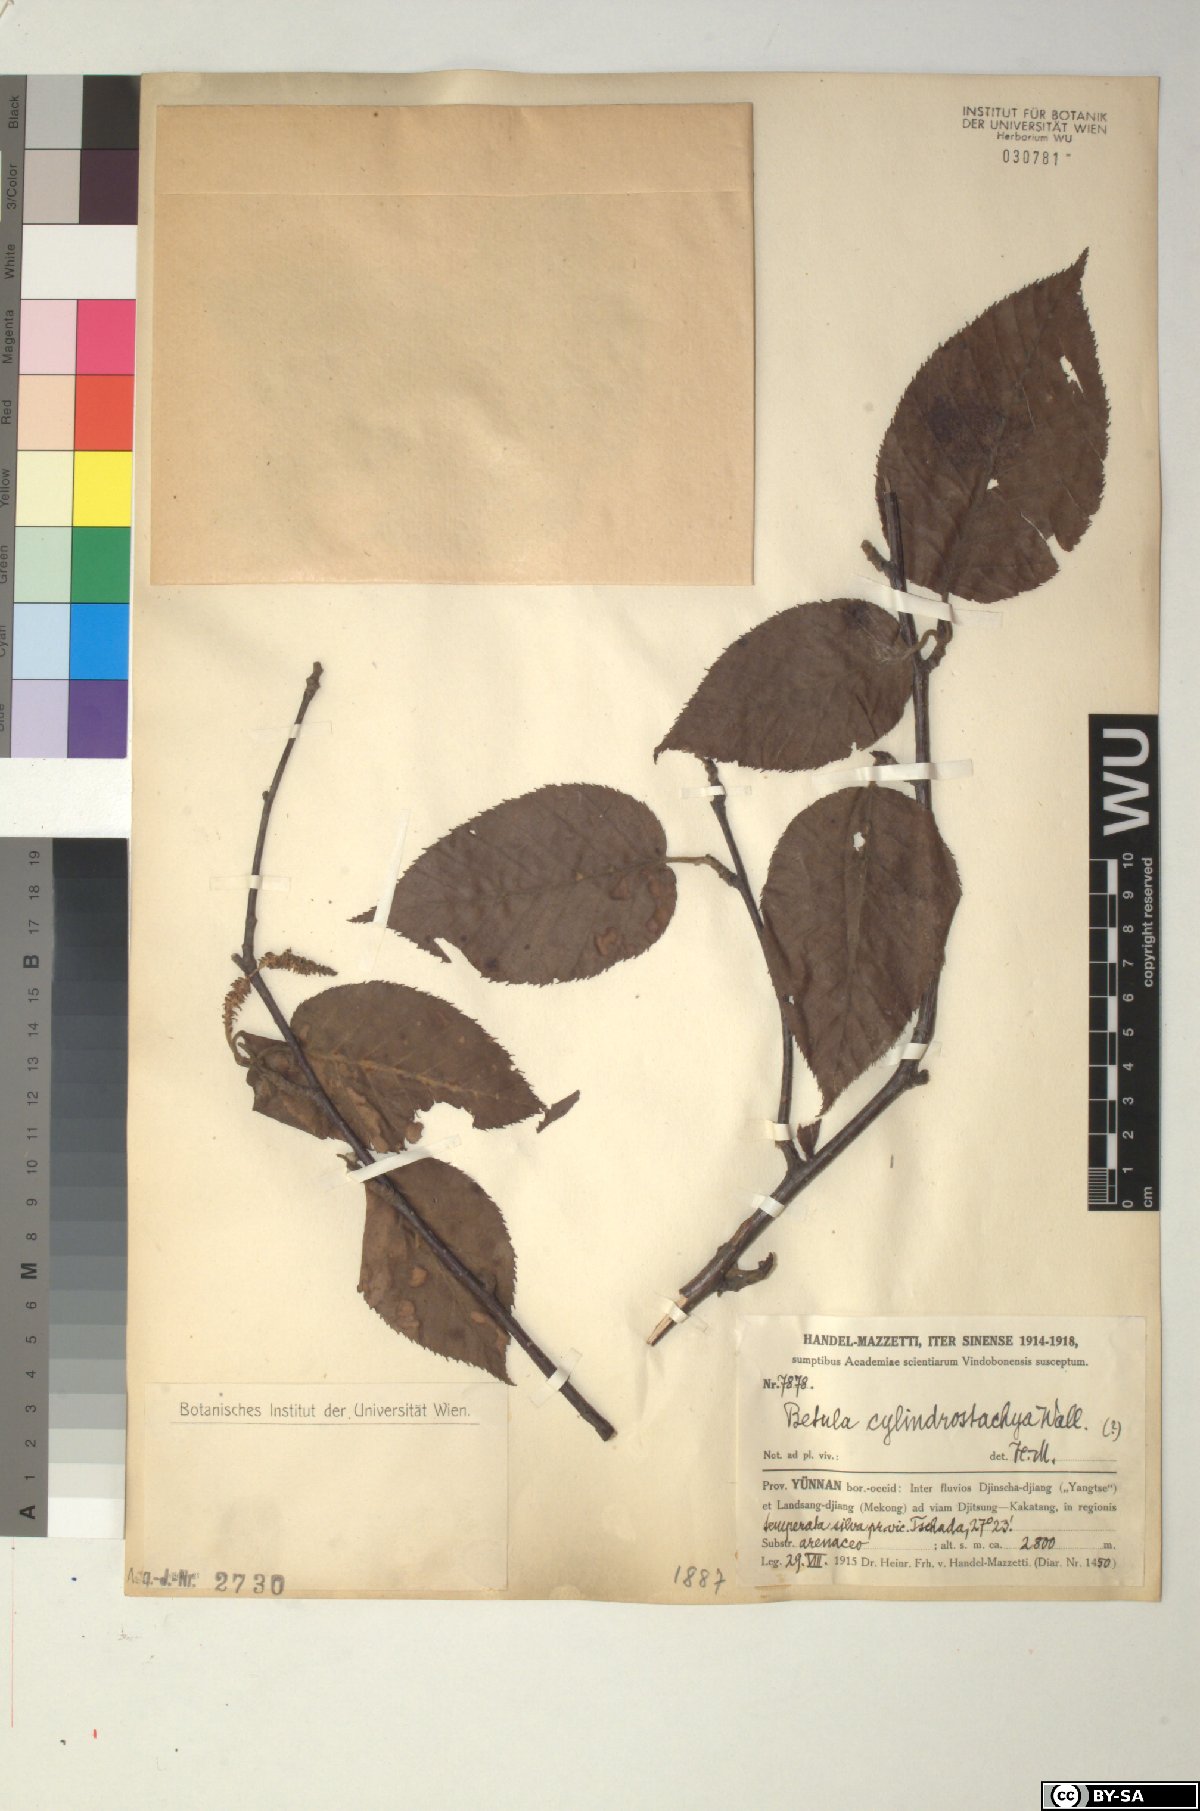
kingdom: Plantae
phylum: Tracheophyta
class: Magnoliopsida
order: Fagales
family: Betulaceae
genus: Betula
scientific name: Betula cylindrostachya
